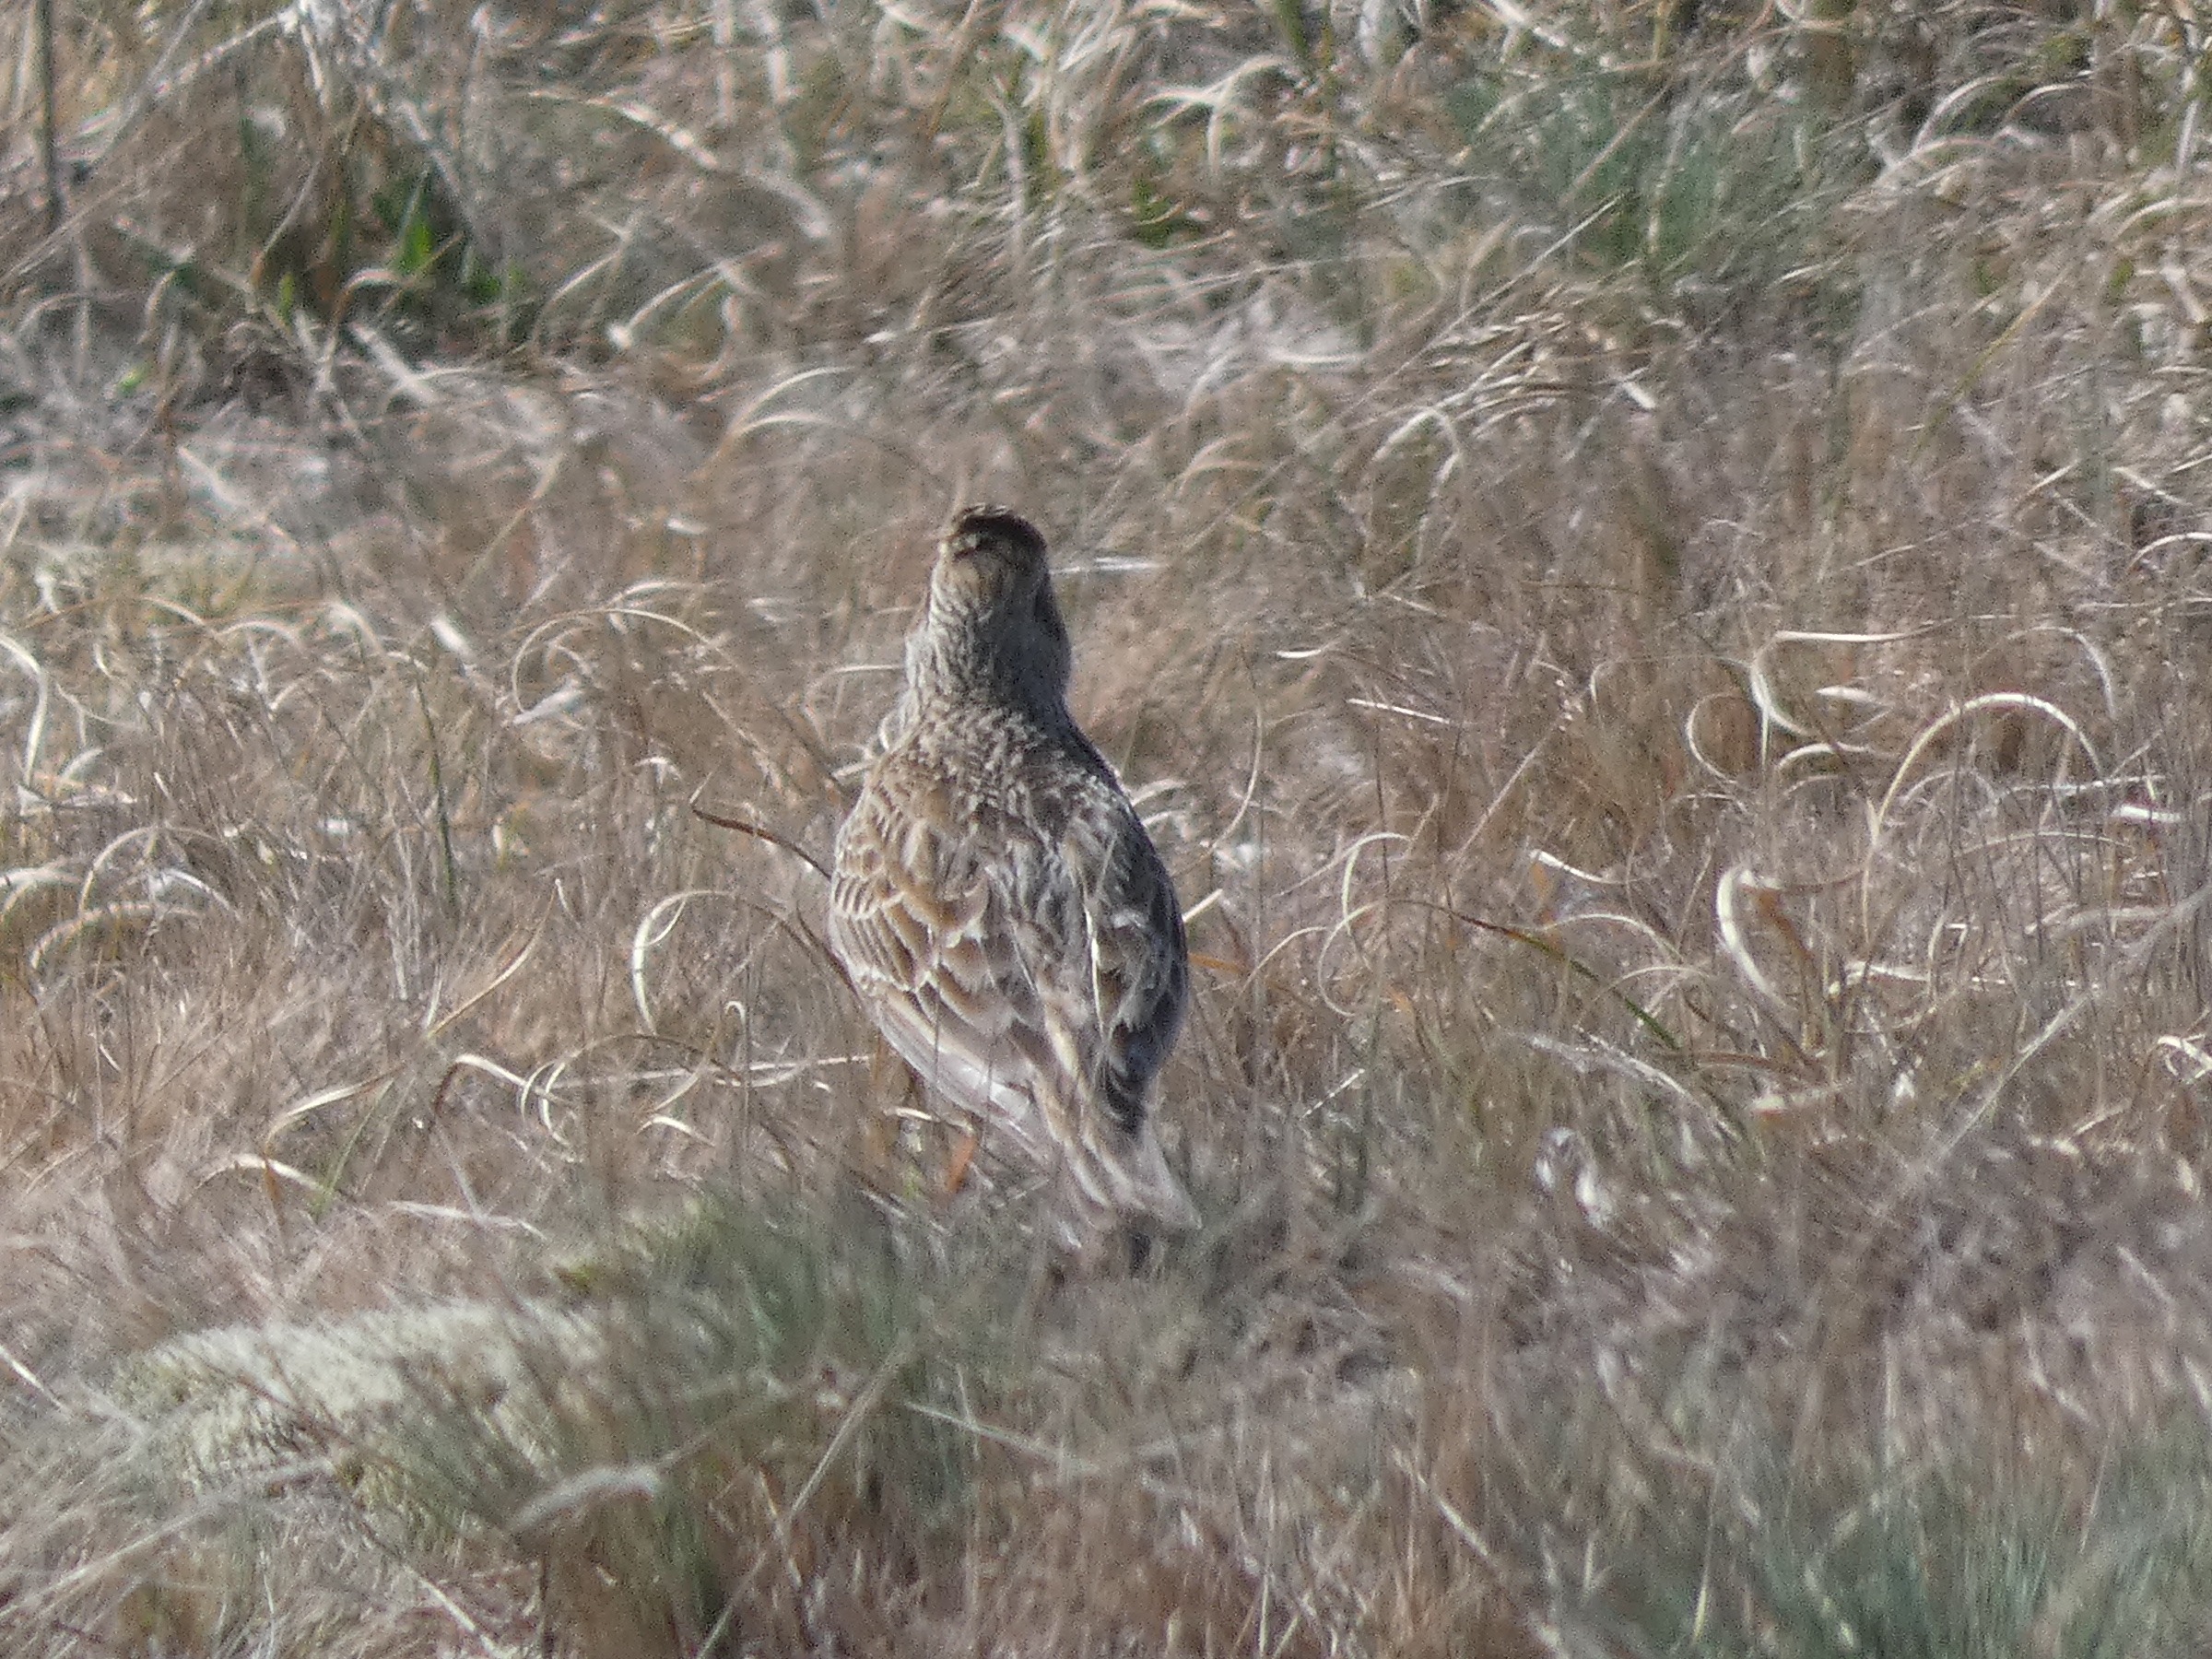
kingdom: Animalia
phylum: Chordata
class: Aves
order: Passeriformes
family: Alaudidae
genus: Alauda
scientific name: Alauda arvensis
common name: Sanglærke
